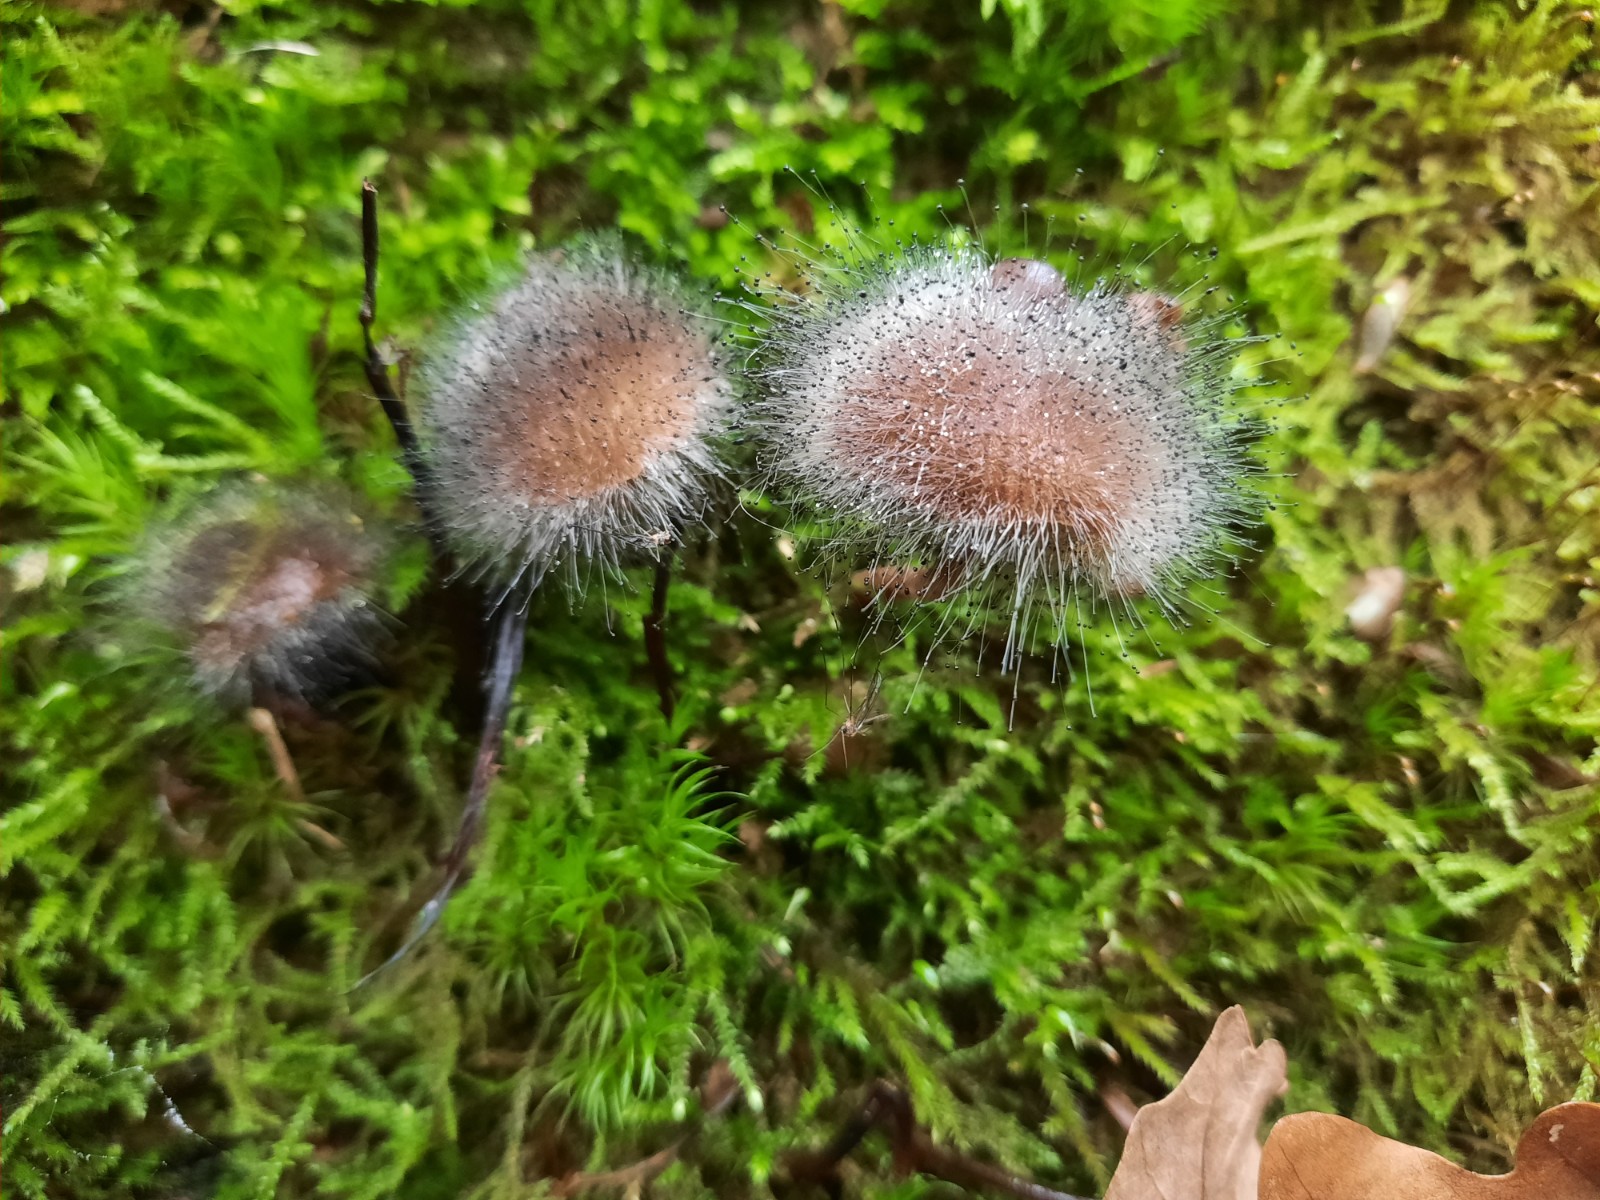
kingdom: Fungi
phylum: Mucoromycota
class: Mucoromycetes
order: Mucorales
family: Phycomycetaceae
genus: Spinellus
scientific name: Spinellus fusiger
